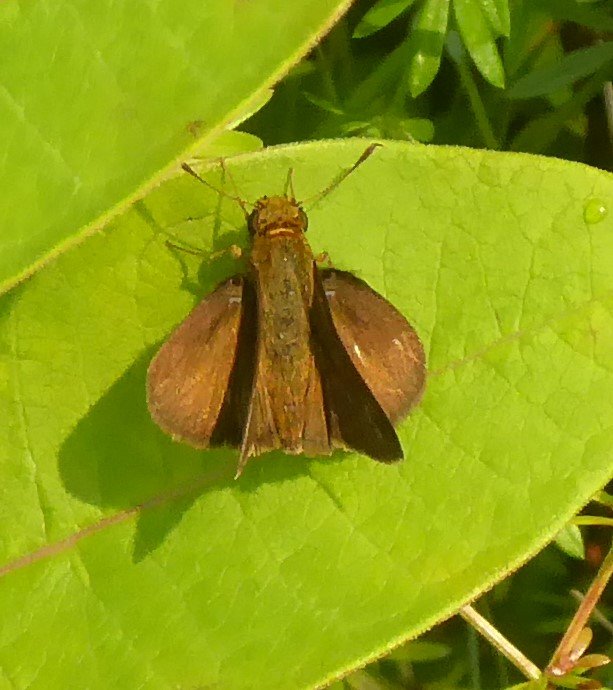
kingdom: Animalia
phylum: Arthropoda
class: Insecta
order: Lepidoptera
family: Hesperiidae
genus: Euphyes
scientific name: Euphyes vestris
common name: Dun Skipper
